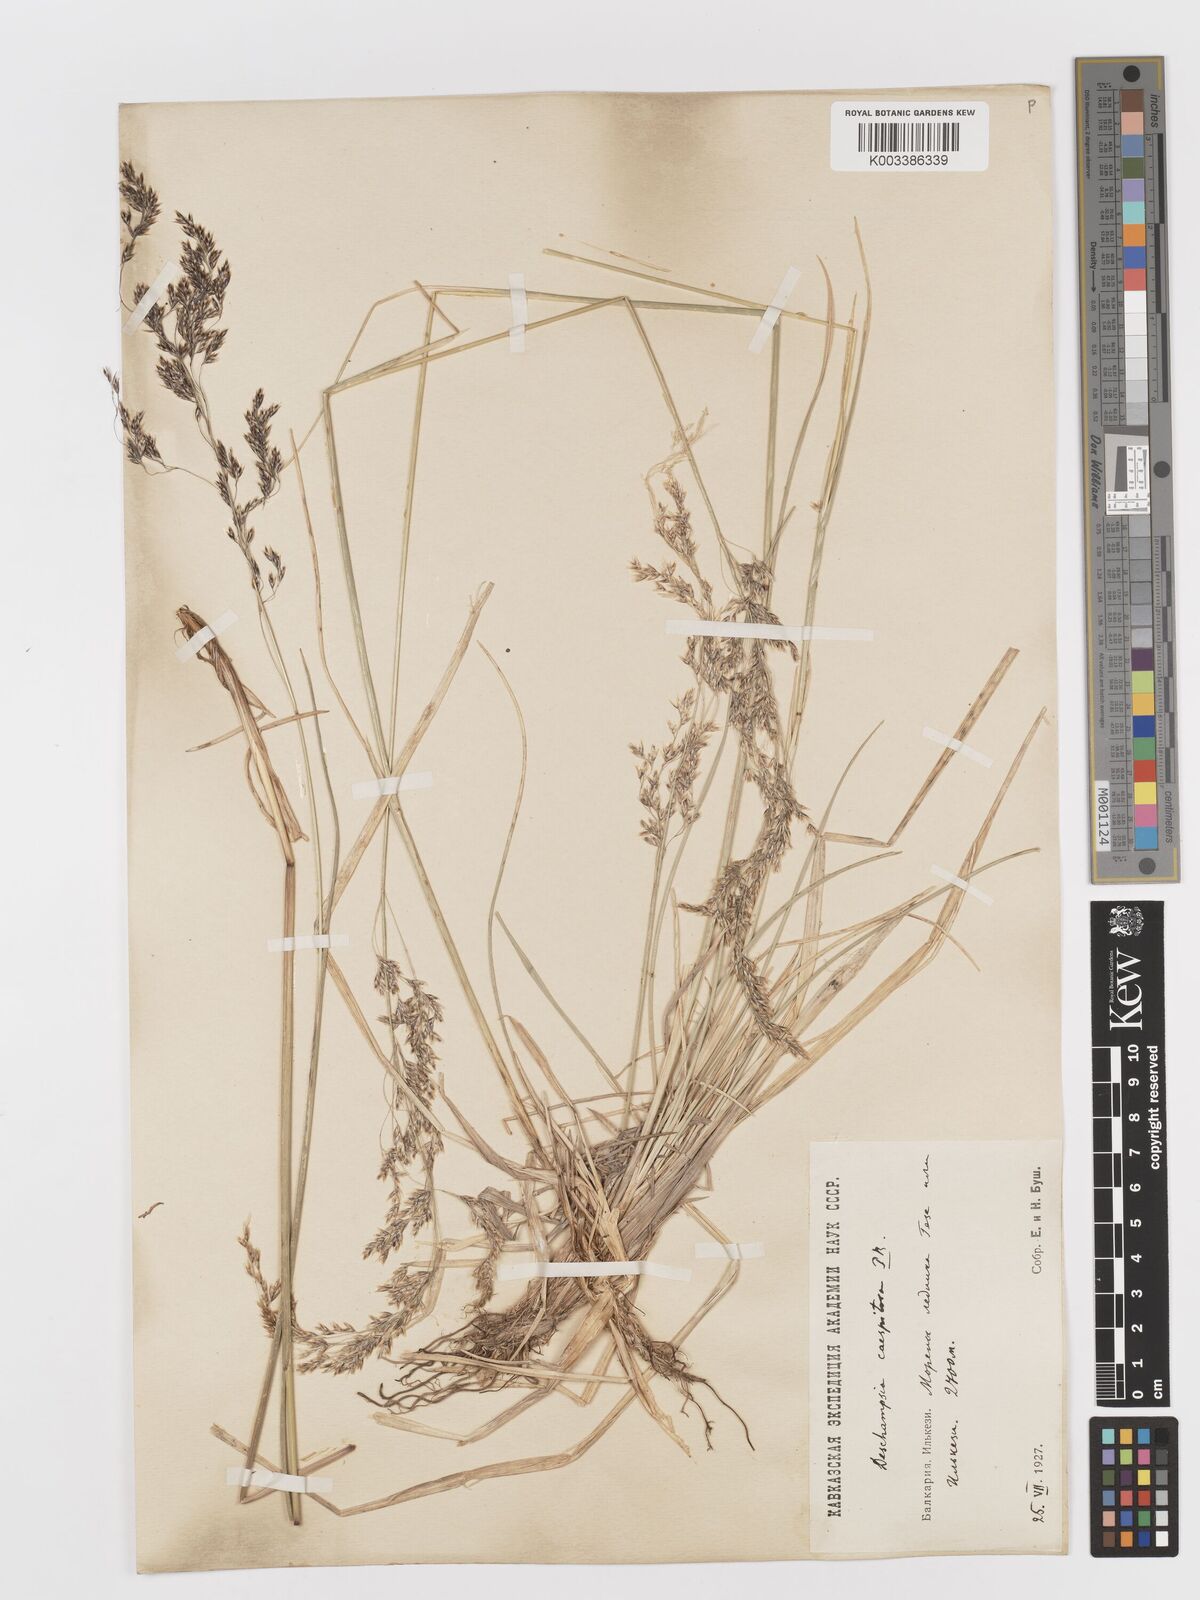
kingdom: Plantae
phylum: Tracheophyta
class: Liliopsida
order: Poales
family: Poaceae
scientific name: Poaceae
